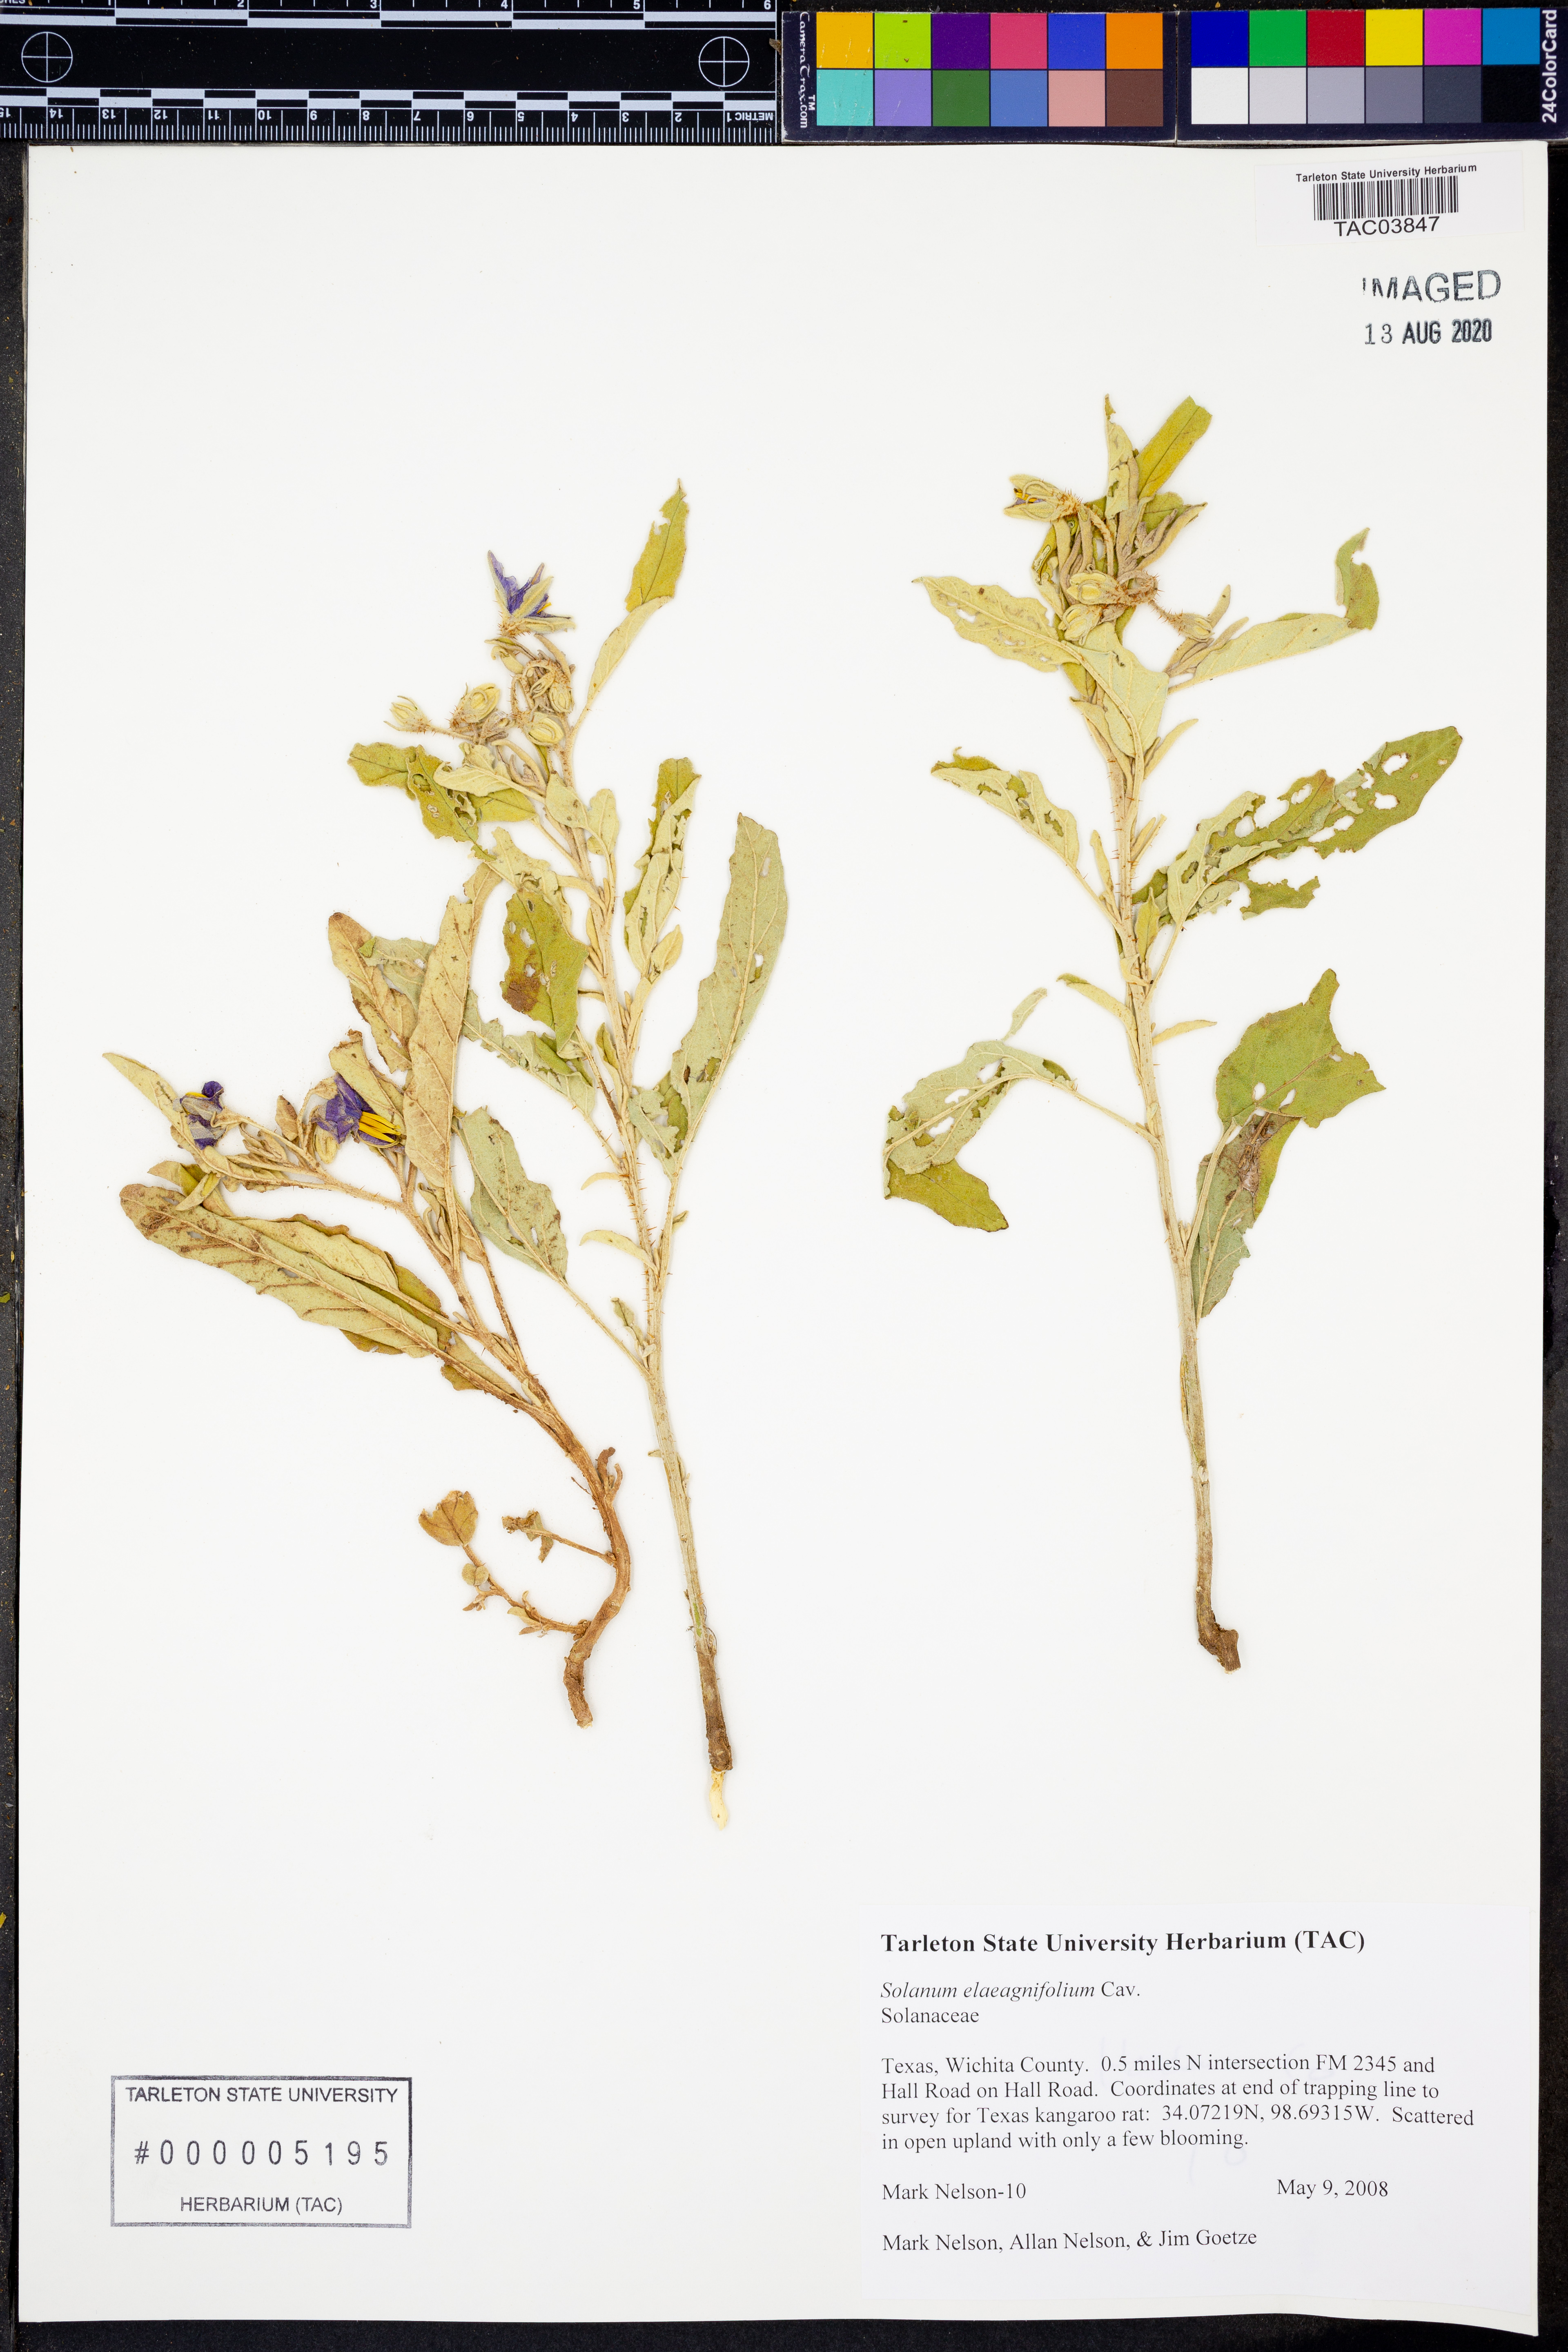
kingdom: Plantae
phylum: Tracheophyta
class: Magnoliopsida
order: Solanales
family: Solanaceae
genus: Solanum
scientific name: Solanum elaeagnifolium
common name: Silverleaf nightshade
